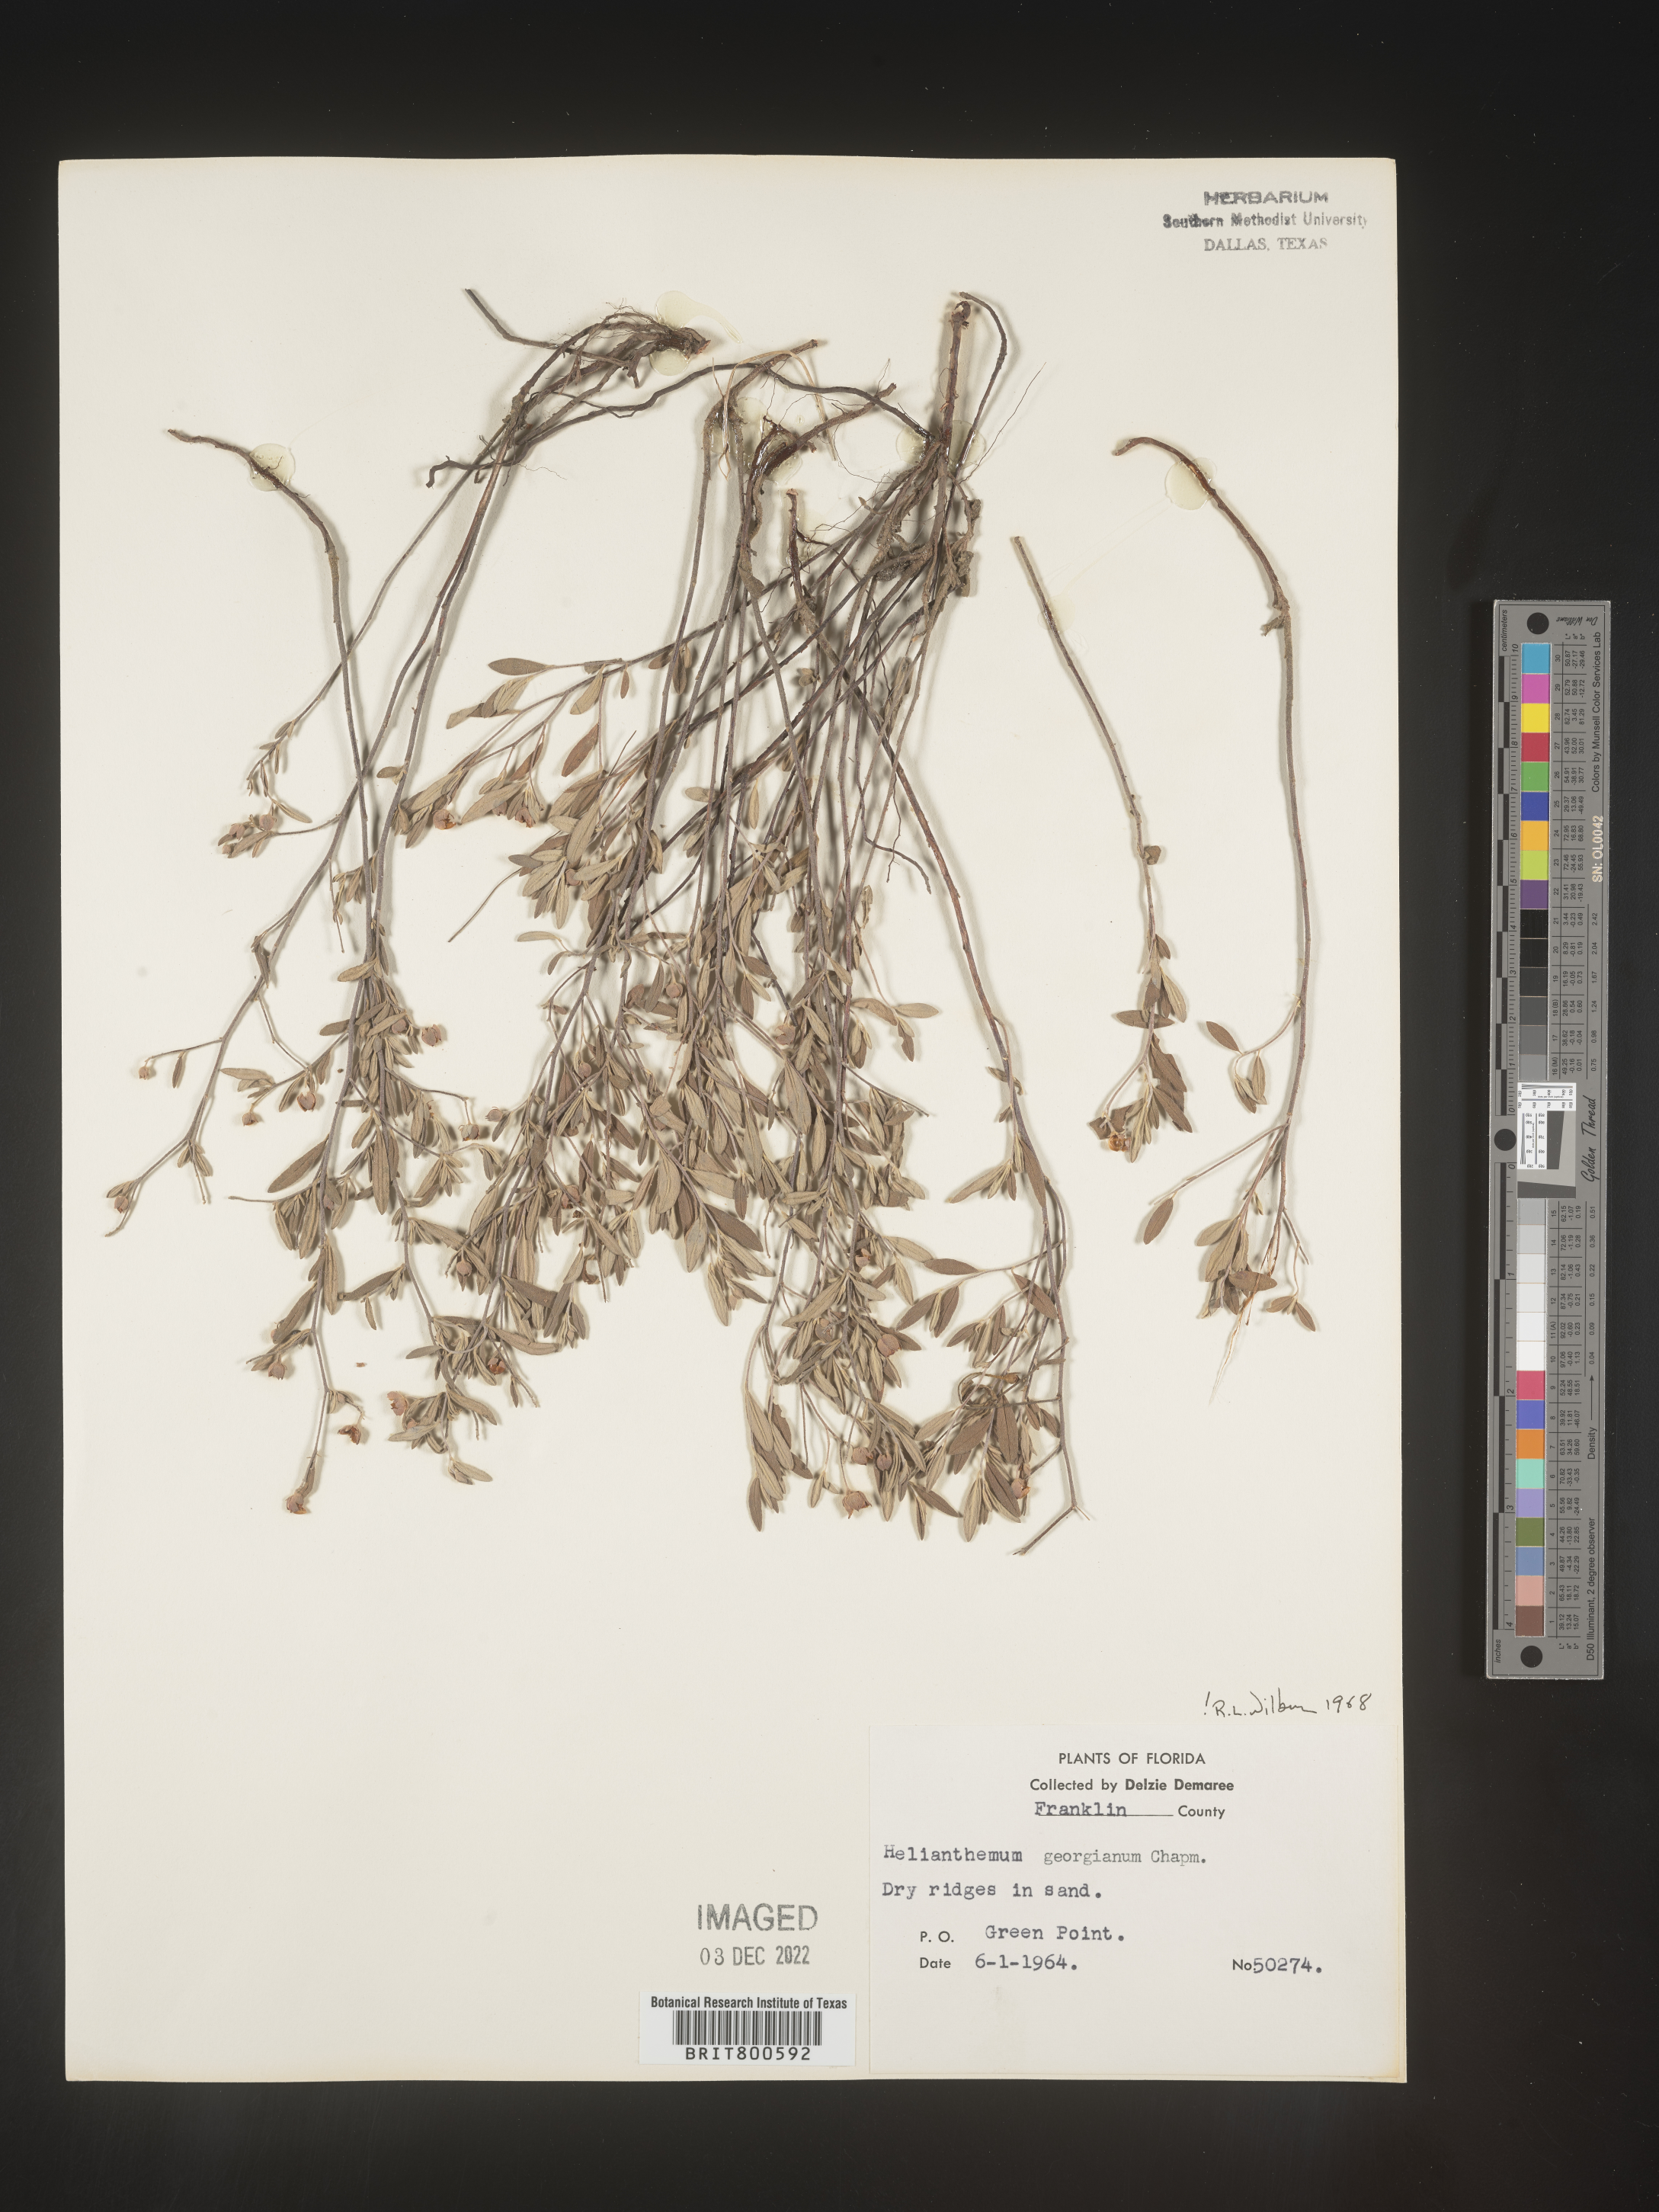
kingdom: Plantae
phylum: Tracheophyta
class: Magnoliopsida
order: Malvales
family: Cistaceae
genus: Crocanthemum
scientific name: Crocanthemum georgianum
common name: Georgia frostweed
